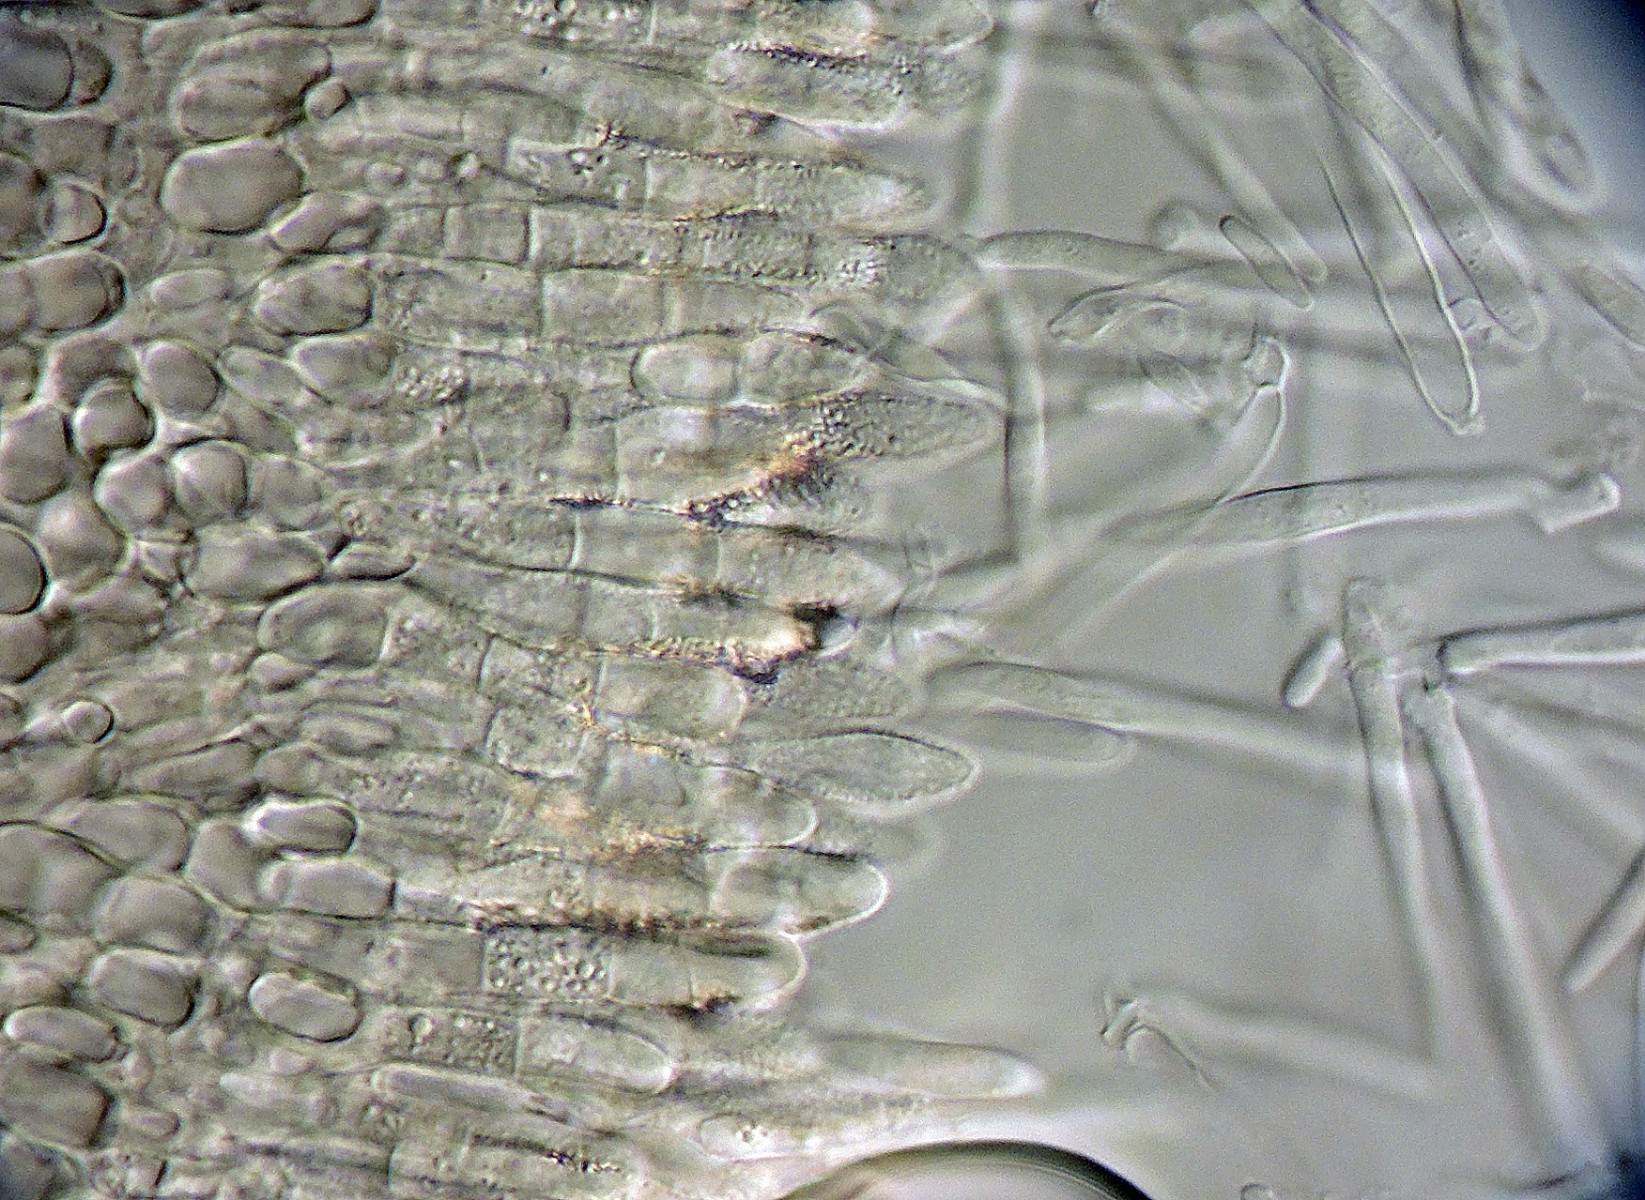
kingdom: Fungi
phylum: Ascomycota
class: Leotiomycetes
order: Helotiales
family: Lachnaceae
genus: Lachnum
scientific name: Lachnum pudibundum
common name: brude-frynseskive
